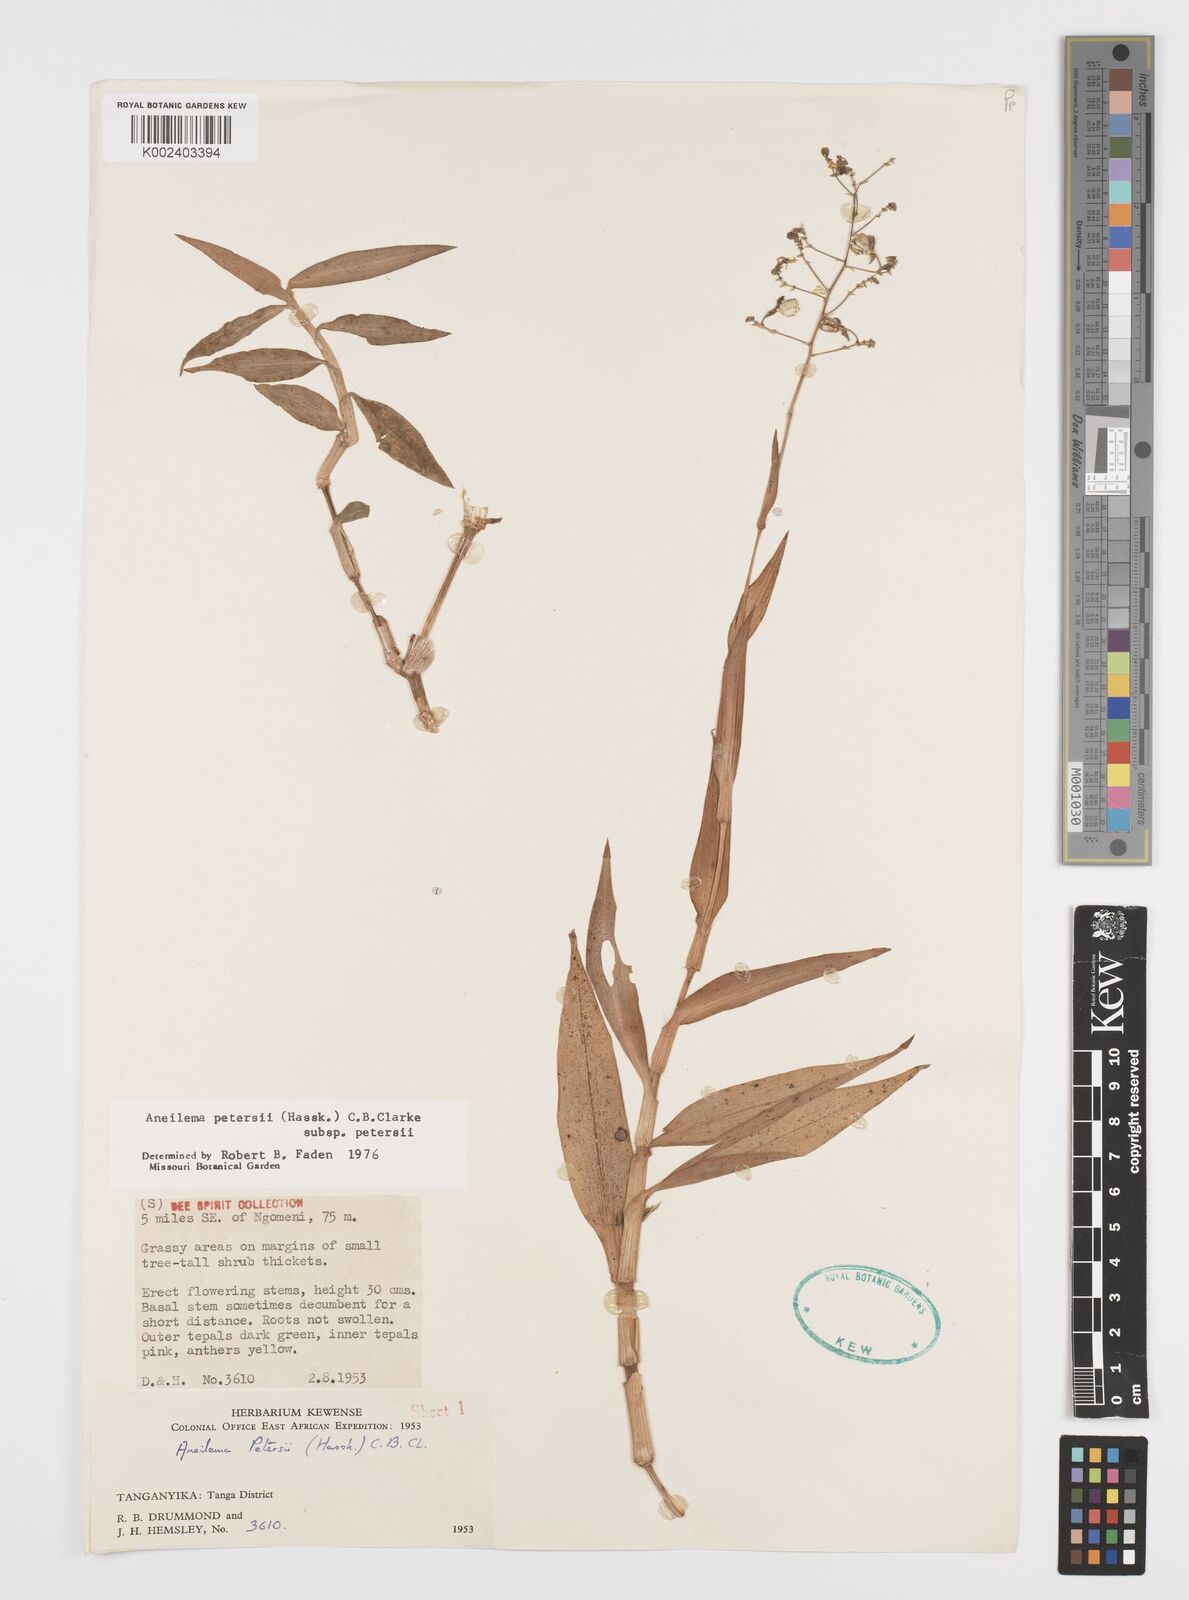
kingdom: Plantae
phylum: Tracheophyta
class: Liliopsida
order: Commelinales
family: Commelinaceae
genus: Aneilema
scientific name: Aneilema petersii
